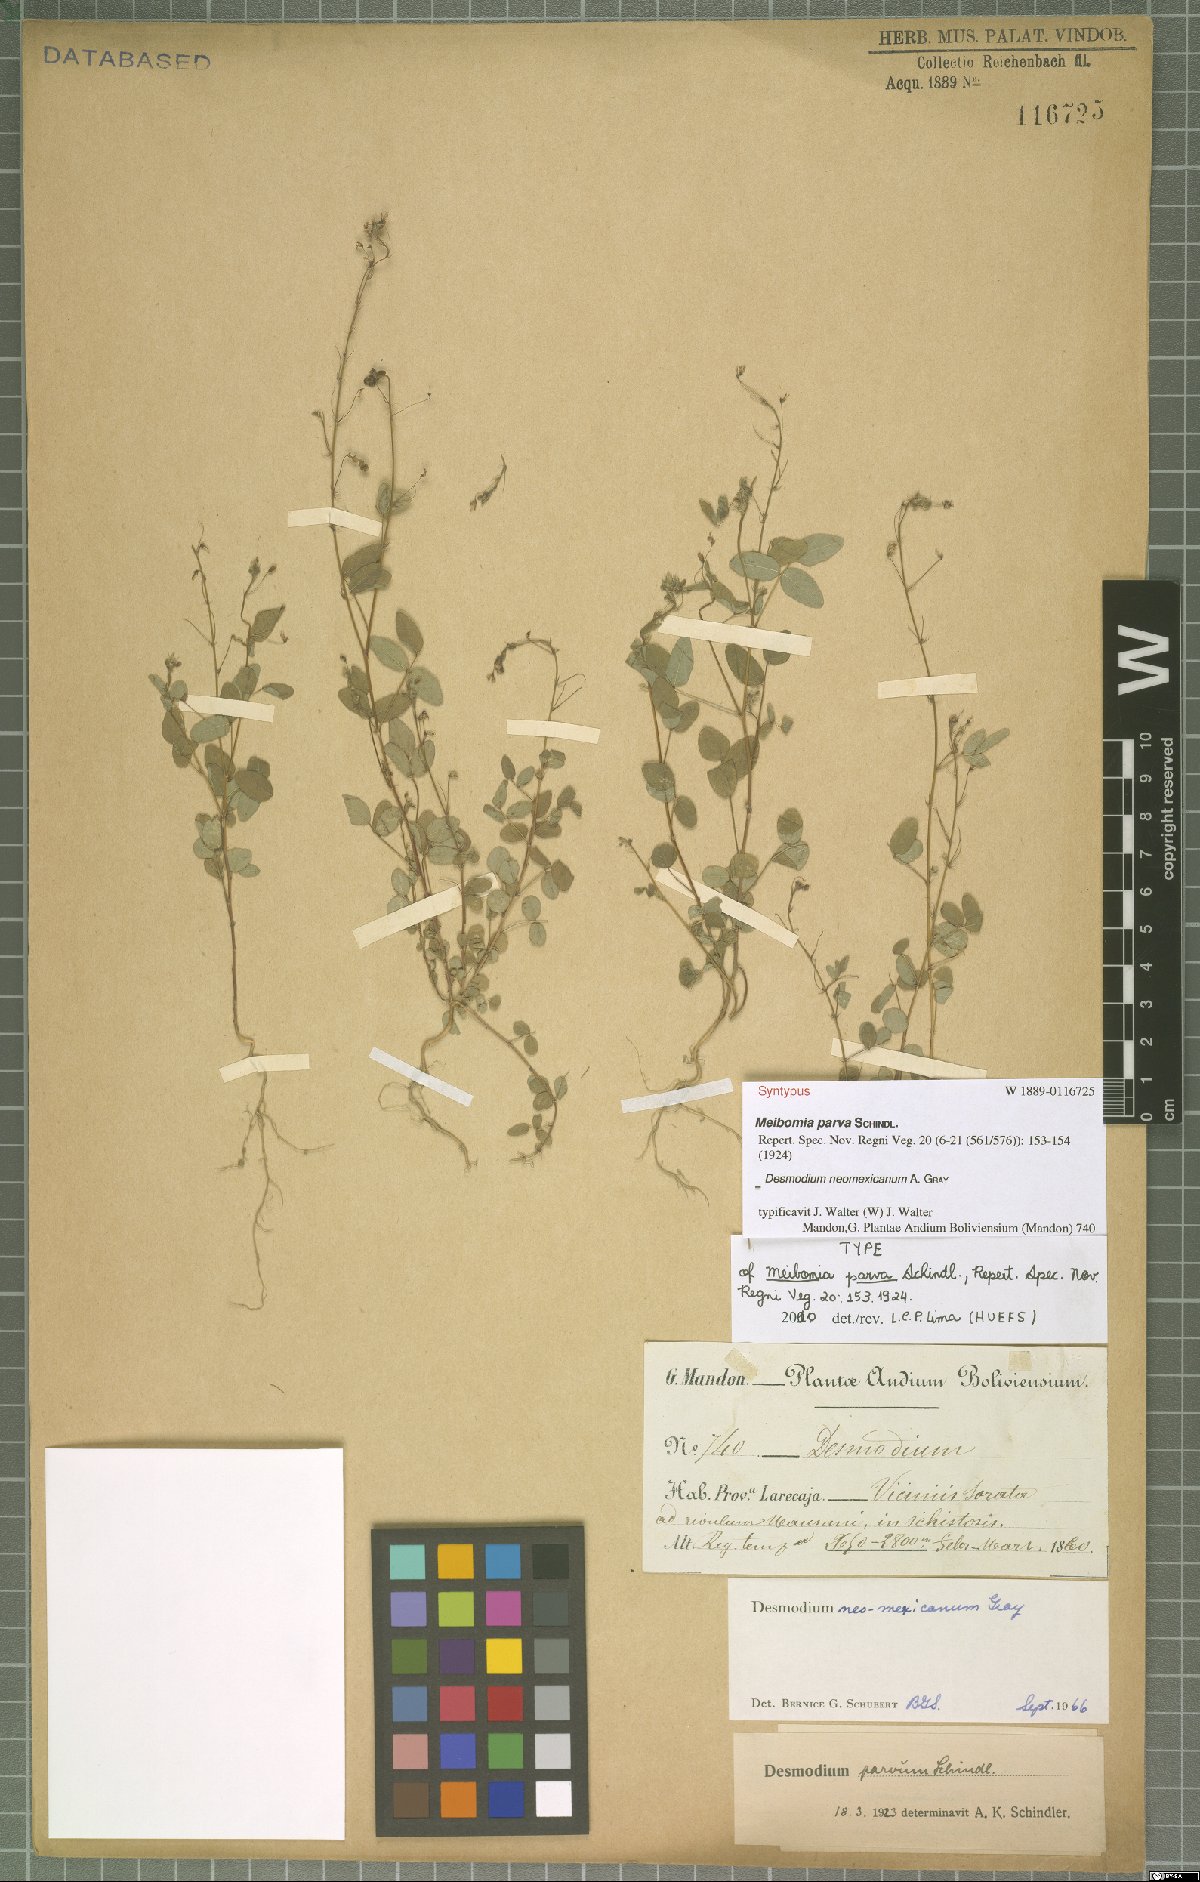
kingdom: Plantae
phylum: Tracheophyta
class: Magnoliopsida
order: Fabales
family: Fabaceae
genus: Desmodium
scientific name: Desmodium procumbens
